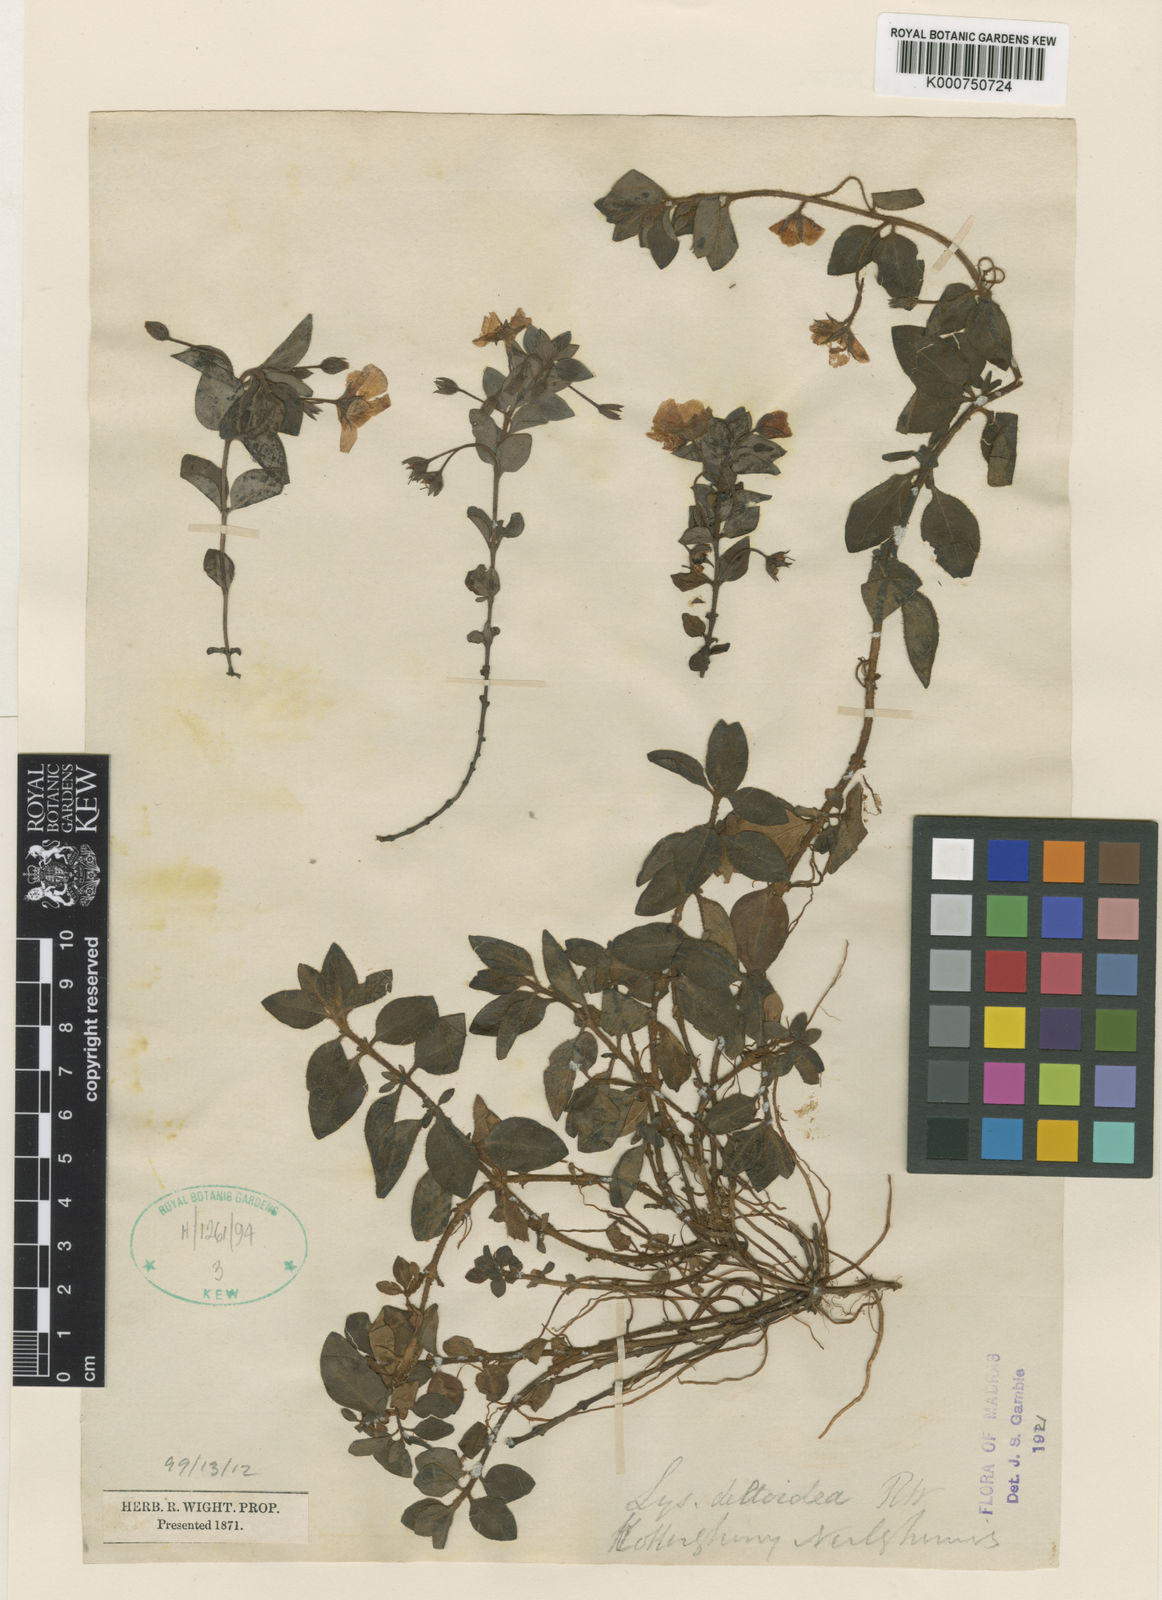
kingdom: Plantae
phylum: Tracheophyta
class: Magnoliopsida
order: Ericales
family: Primulaceae
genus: Lysimachia
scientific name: Lysimachia deltoidea
